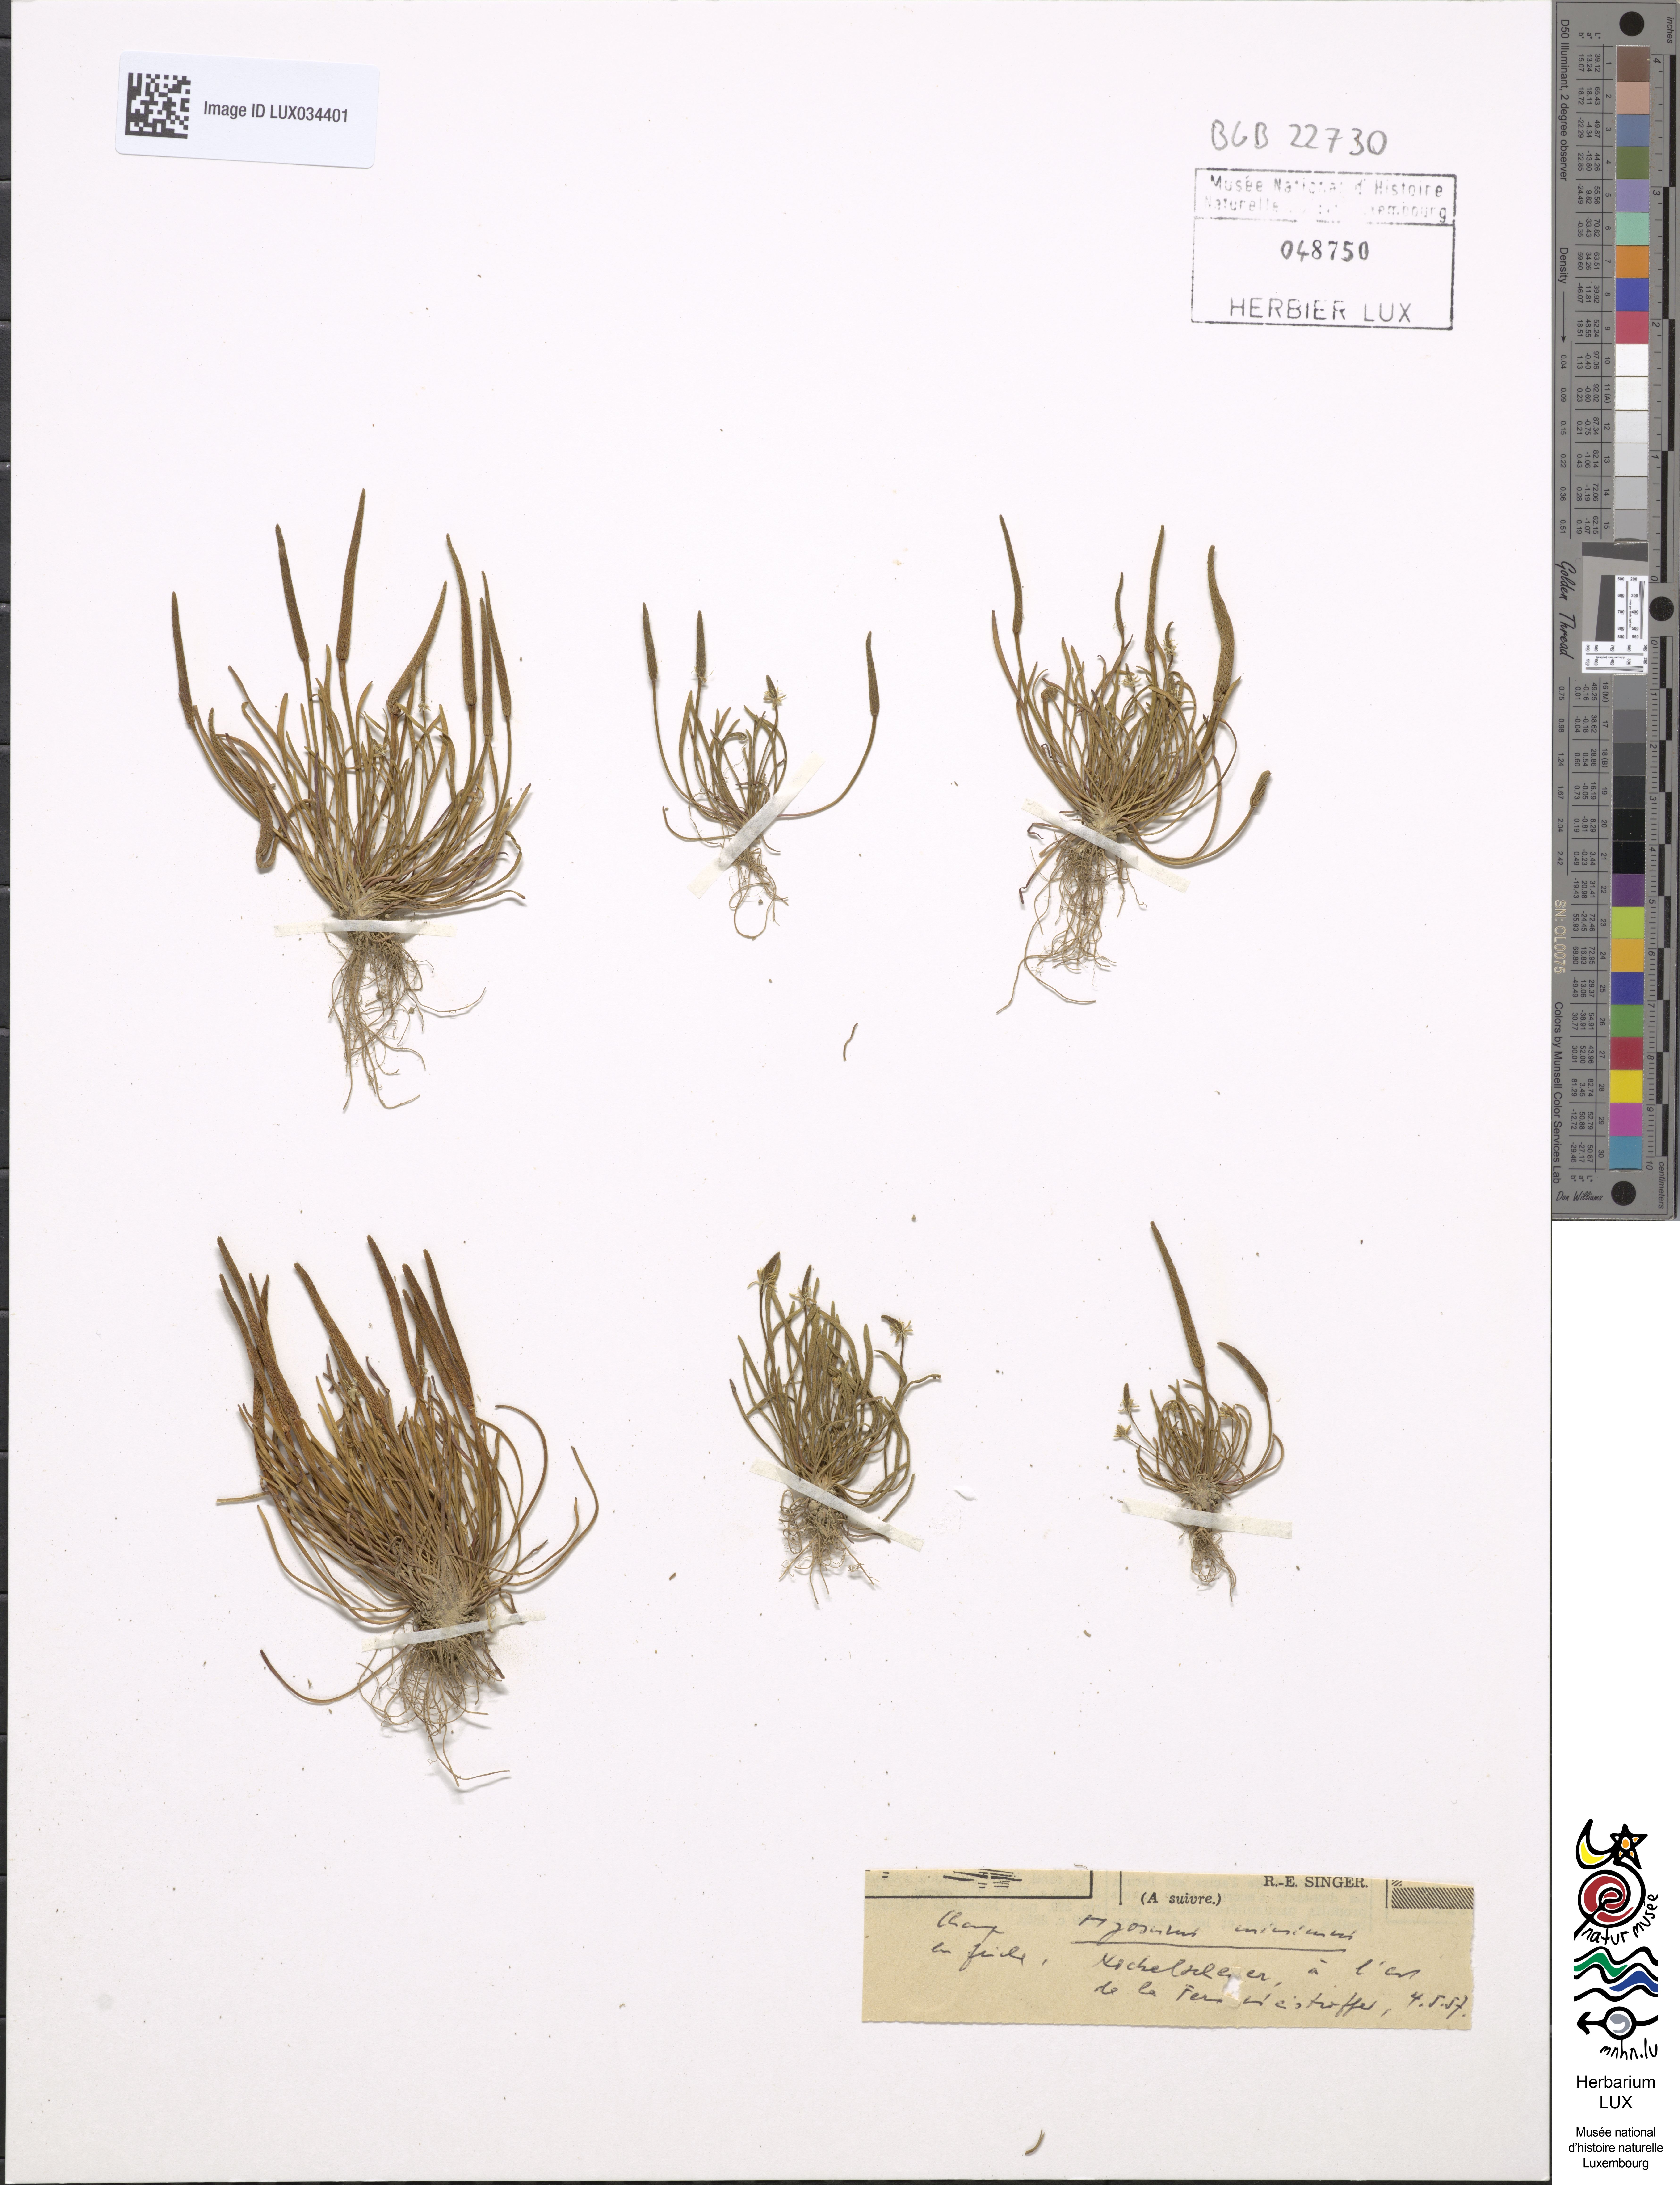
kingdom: Plantae
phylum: Tracheophyta
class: Magnoliopsida
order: Ranunculales
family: Ranunculaceae
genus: Myosurus
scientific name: Myosurus minimus
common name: Mousetail
